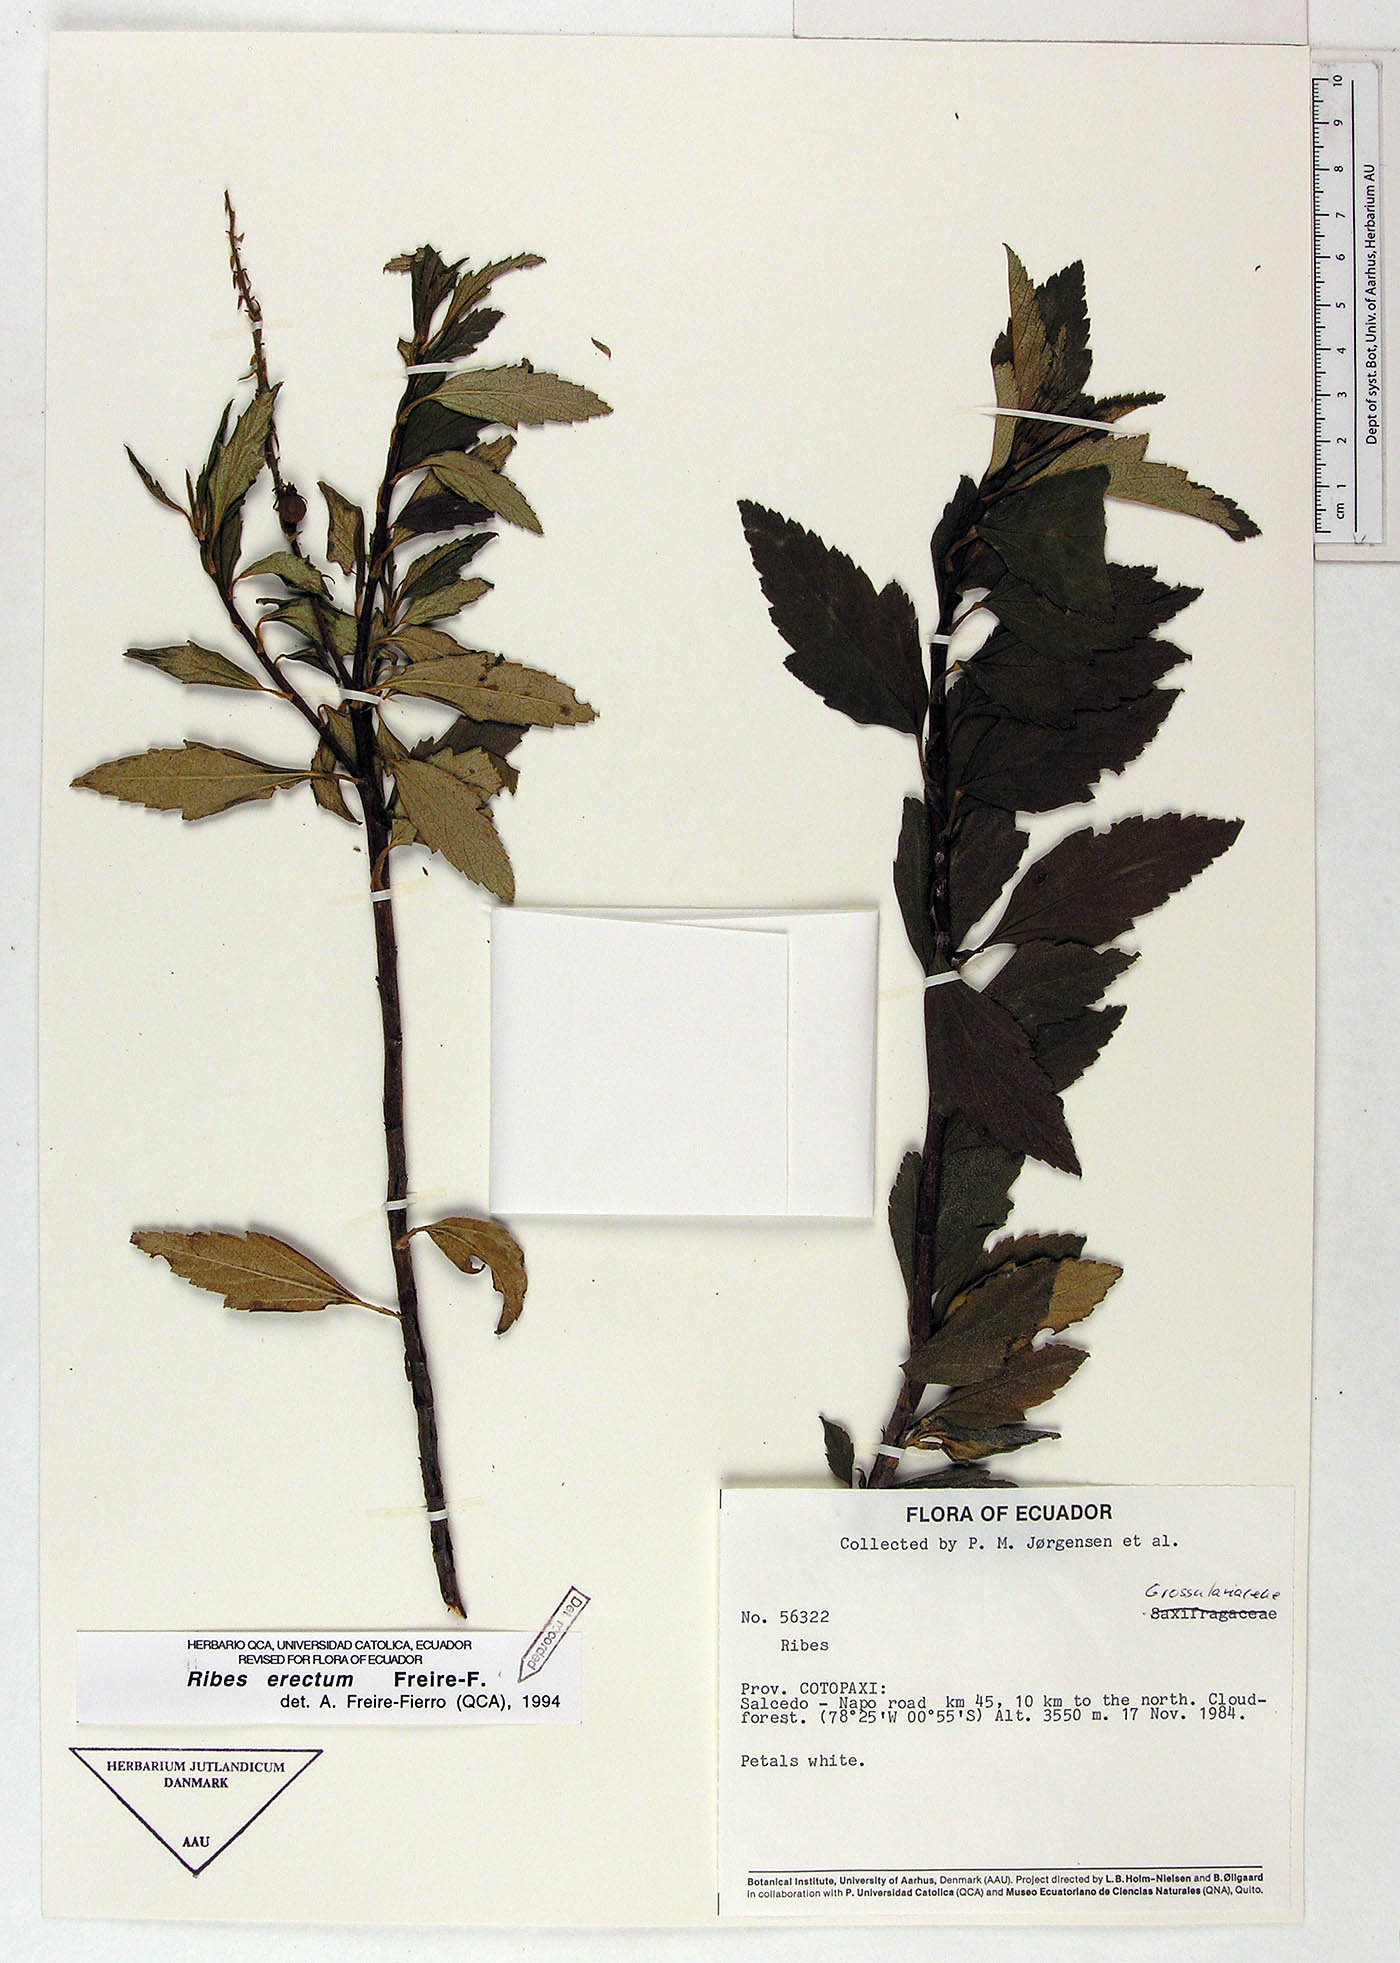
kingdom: Plantae
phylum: Tracheophyta
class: Magnoliopsida
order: Saxifragales
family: Grossulariaceae
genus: Ribes
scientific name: Ribes erectum
